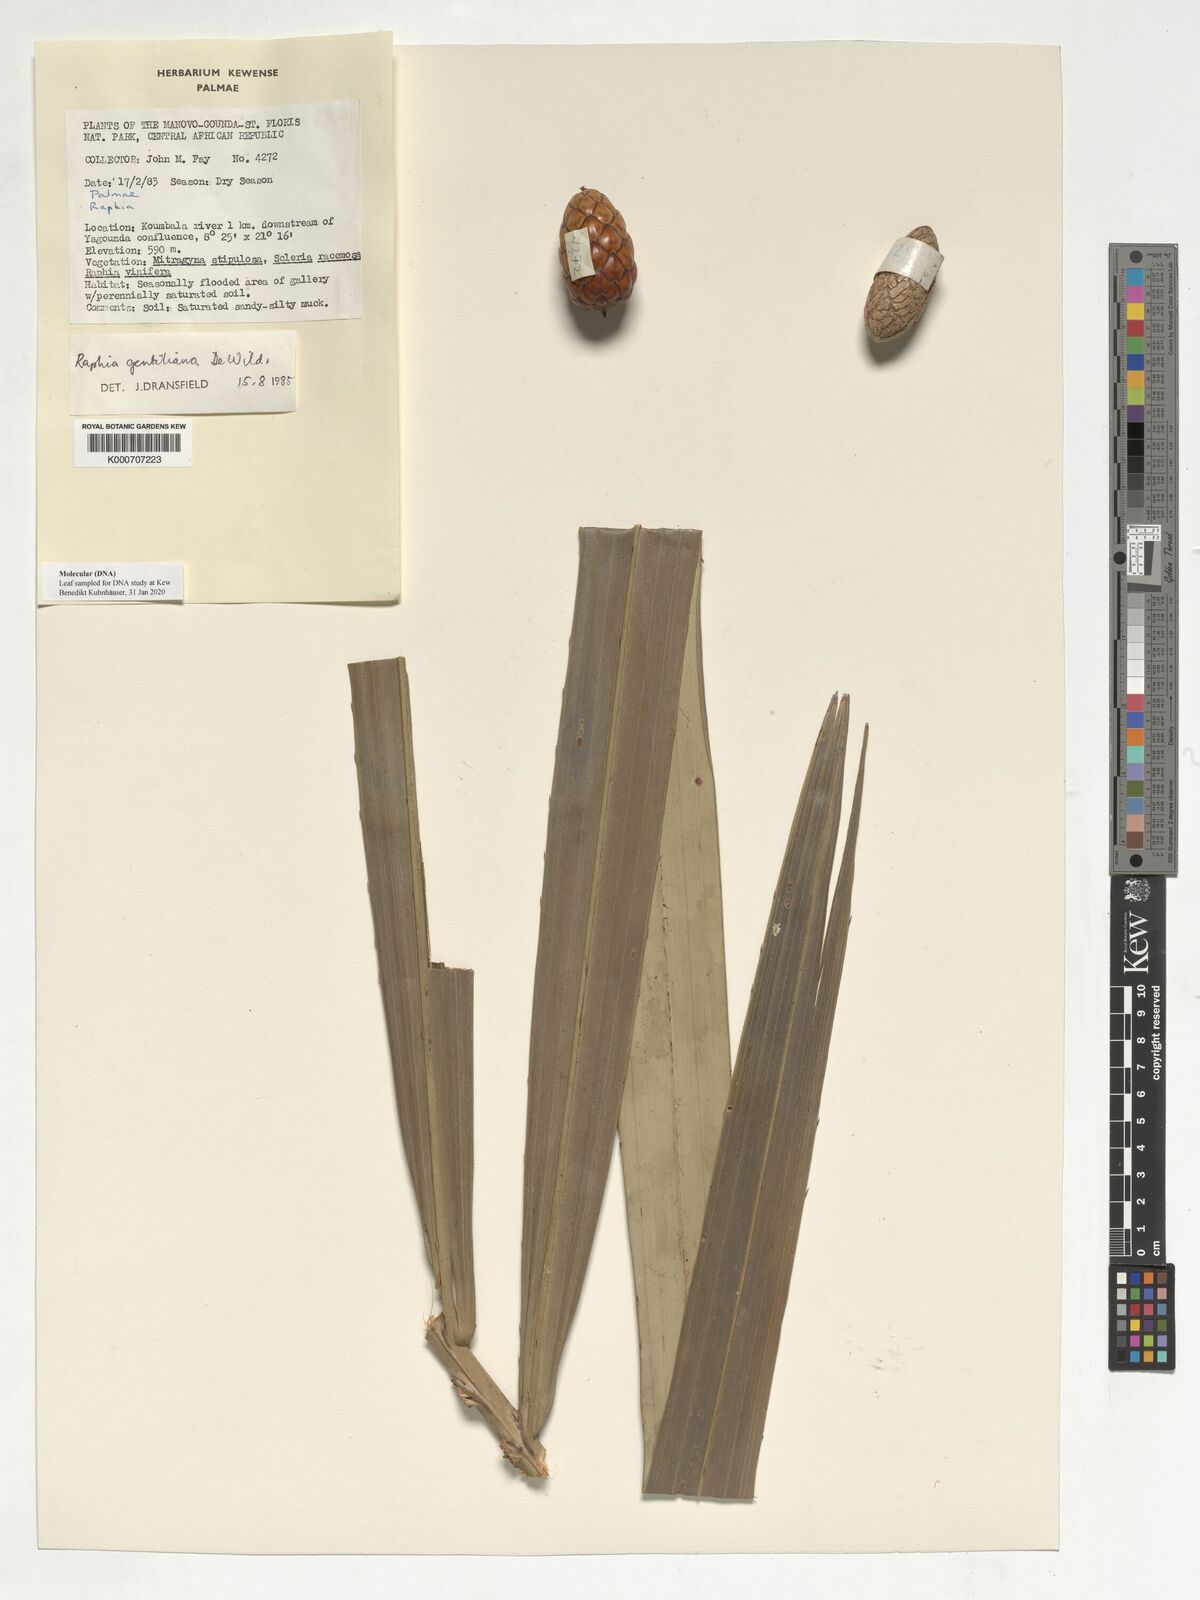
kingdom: Plantae
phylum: Tracheophyta
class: Liliopsida
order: Arecales
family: Arecaceae
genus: Raphia
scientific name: Raphia gentiliana
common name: Raphia palm
